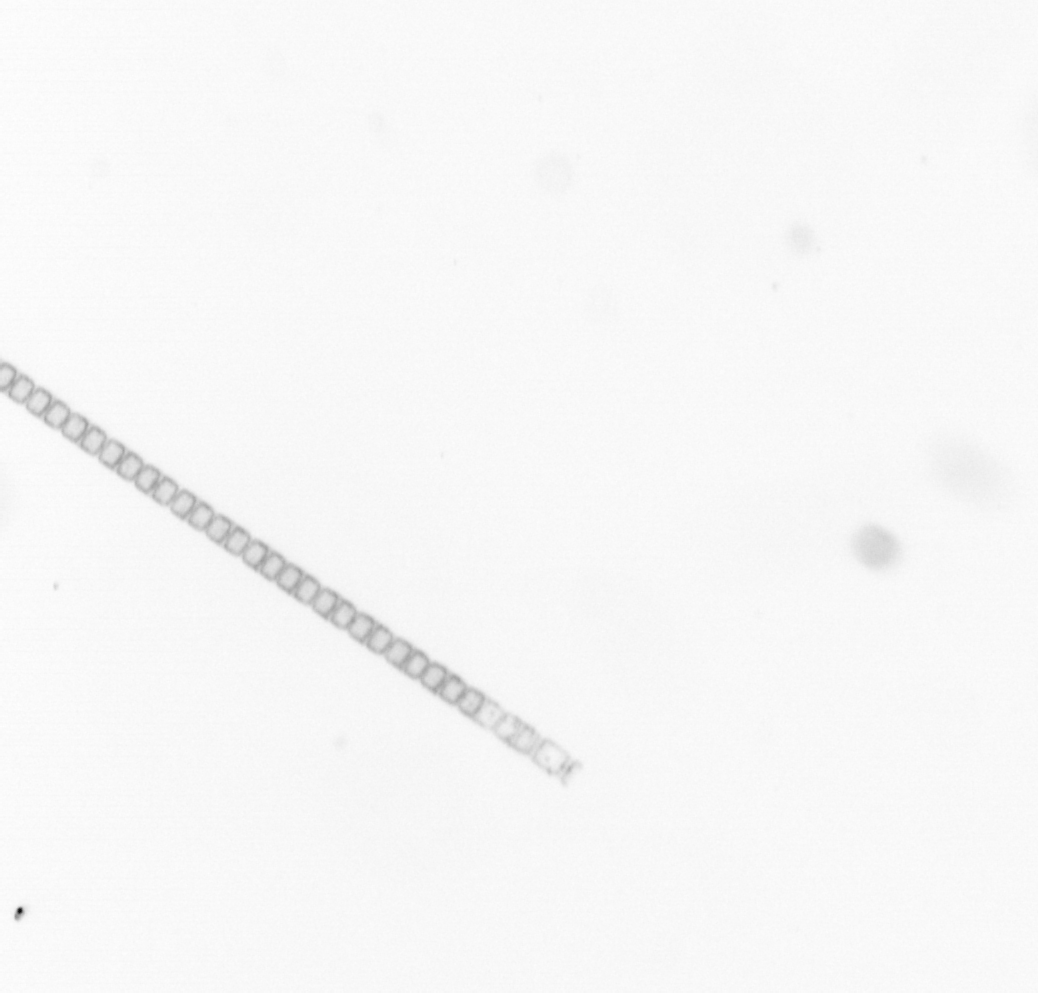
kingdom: Chromista
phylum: Ochrophyta
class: Bacillariophyceae
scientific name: Bacillariophyceae
